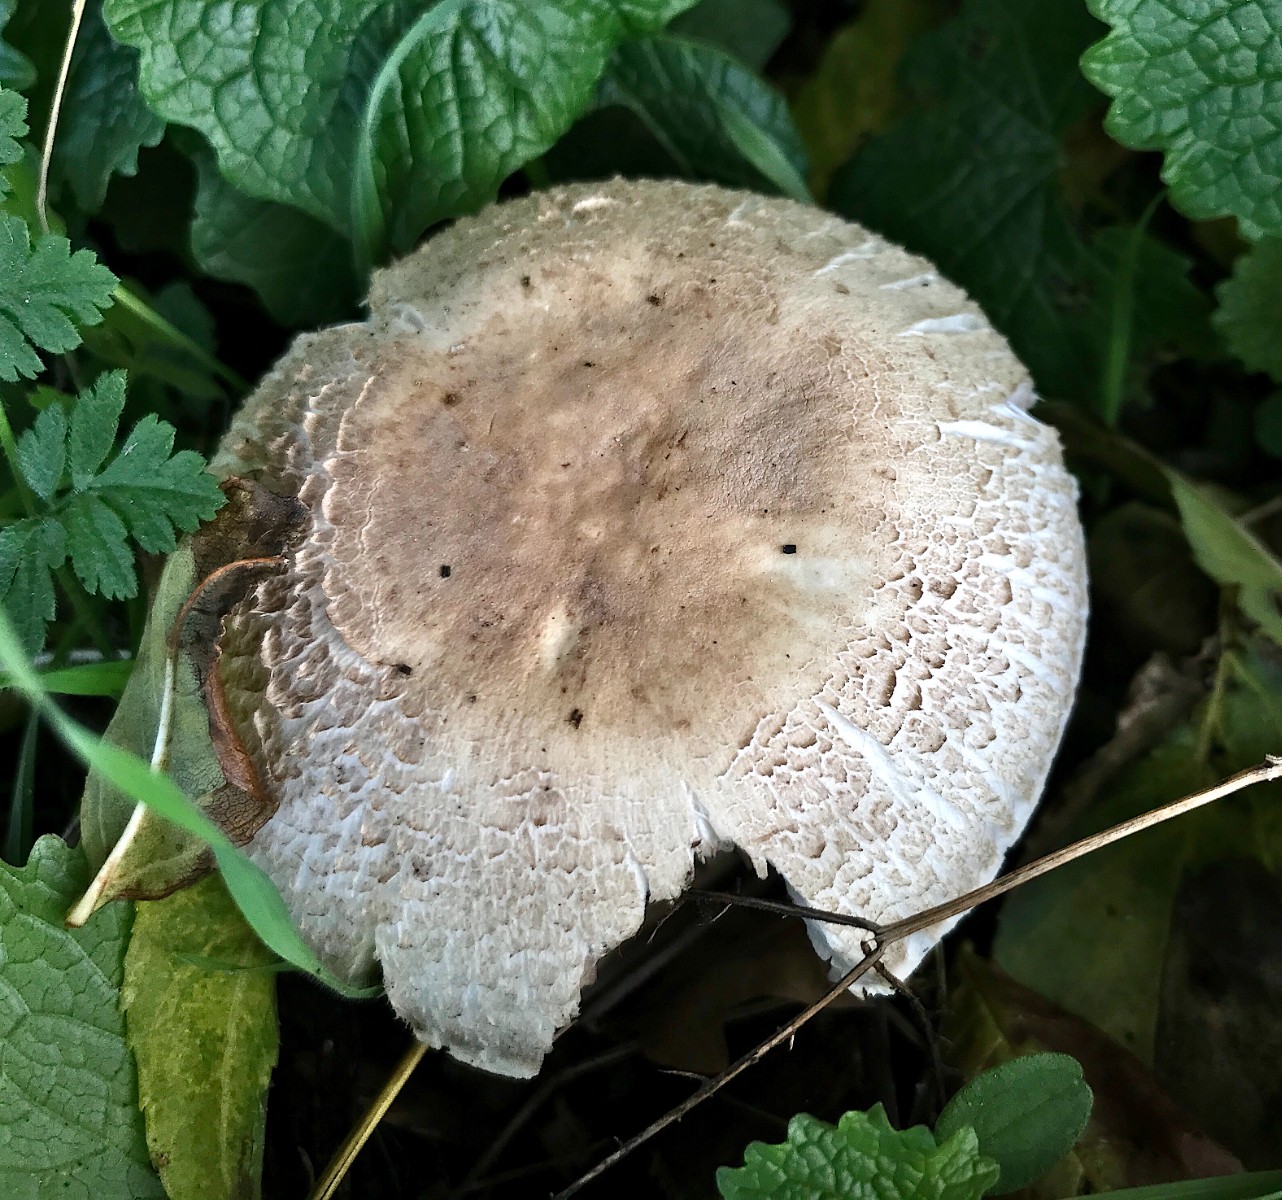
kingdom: Fungi
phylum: Basidiomycota
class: Agaricomycetes
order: Agaricales
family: Agaricaceae
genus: Agaricus
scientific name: Agaricus xanthodermus
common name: karbol-champignon
